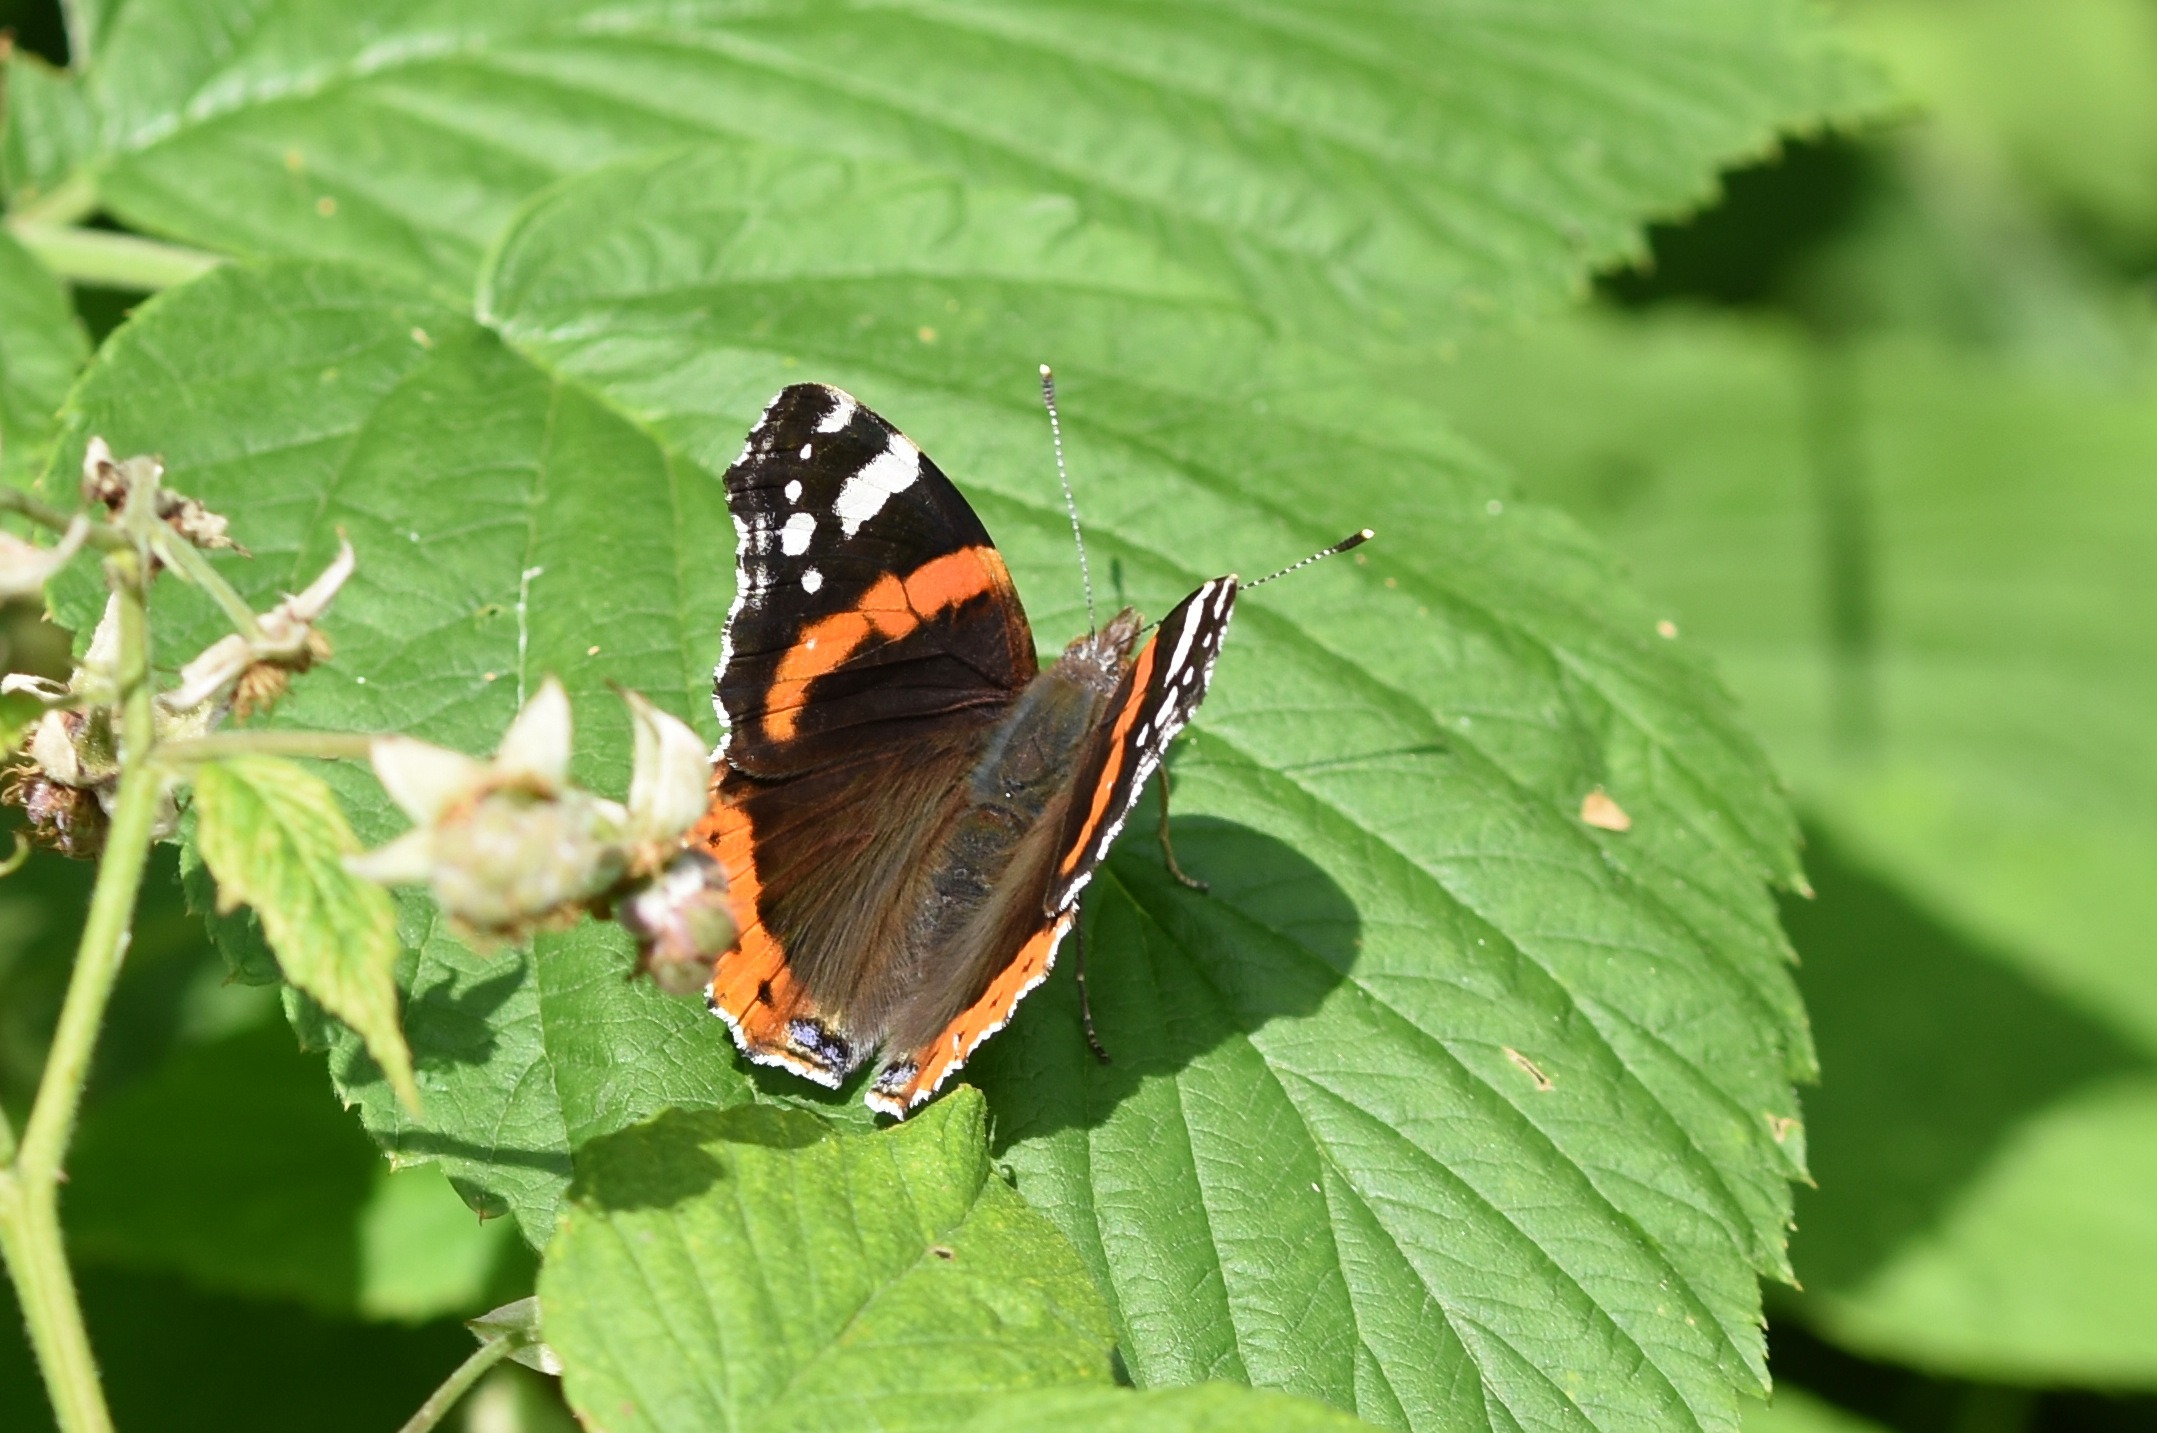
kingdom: Animalia
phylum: Arthropoda
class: Insecta
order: Lepidoptera
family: Nymphalidae
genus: Vanessa
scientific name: Vanessa atalanta
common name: Admiral
